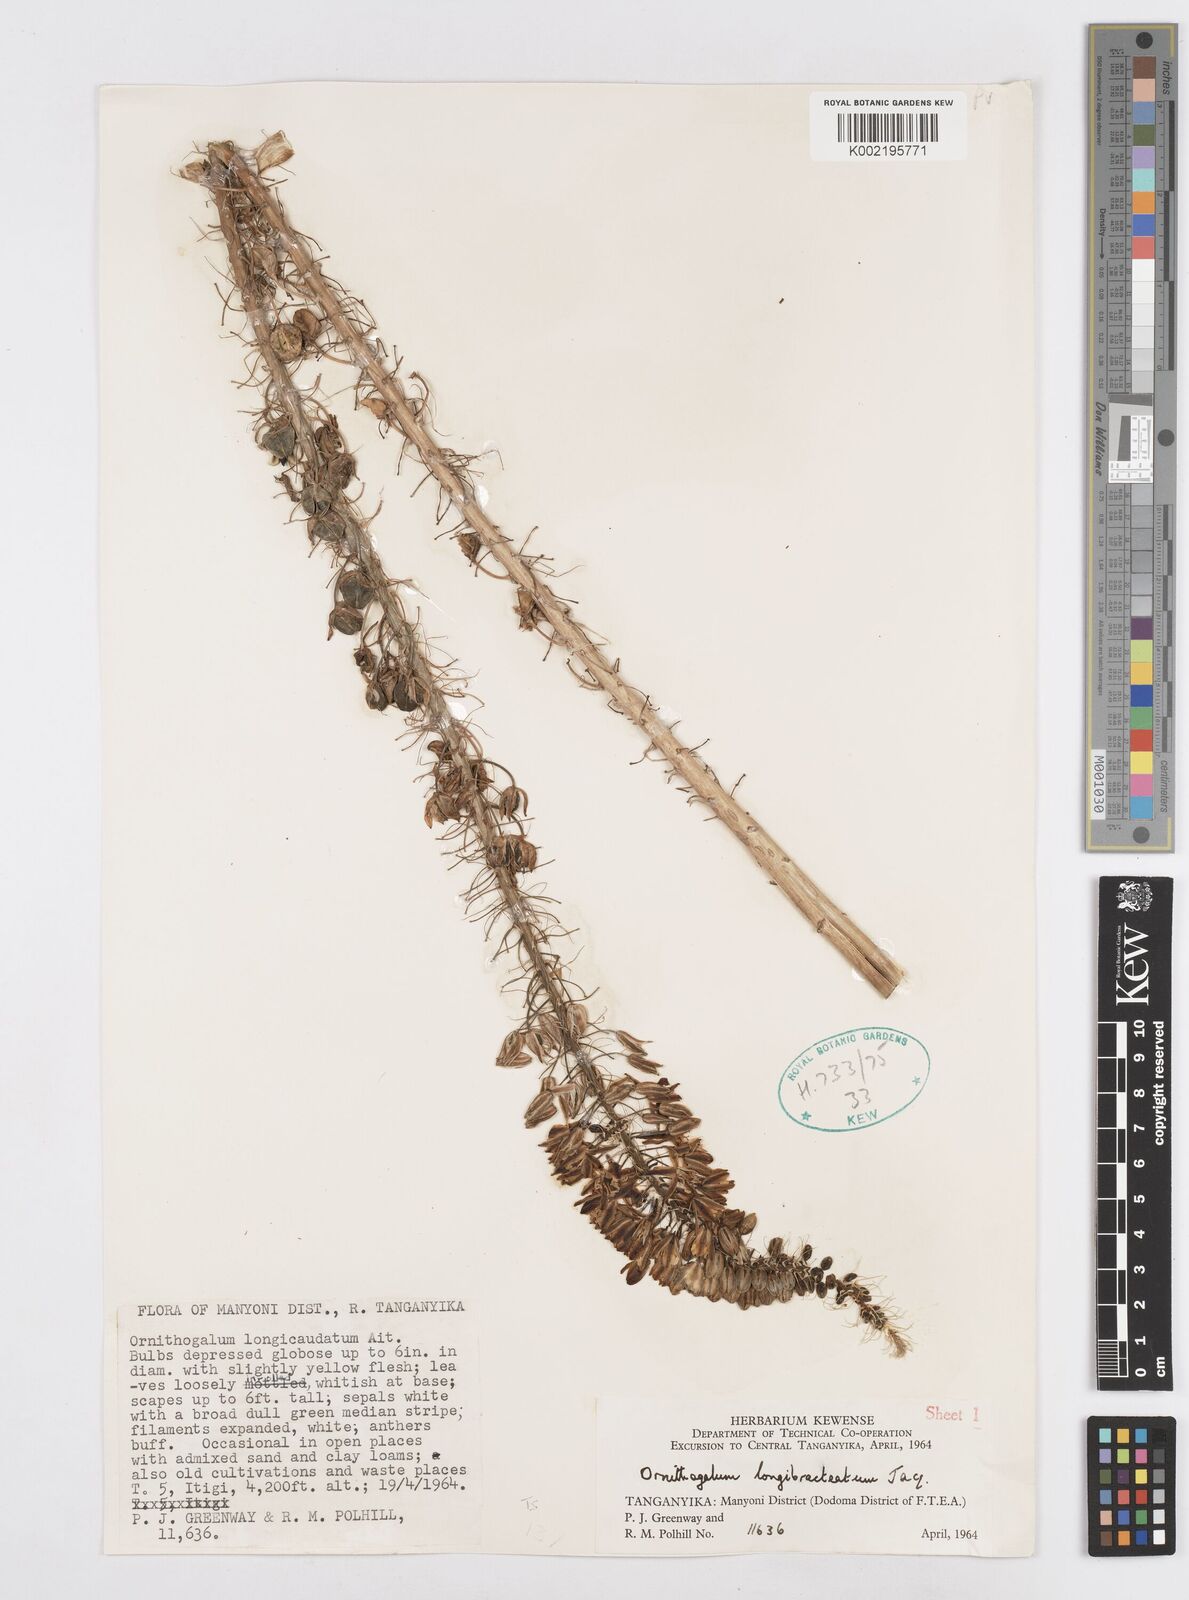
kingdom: Plantae
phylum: Tracheophyta
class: Liliopsida
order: Asparagales
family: Asparagaceae
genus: Albuca
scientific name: Albuca bracteata
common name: Sea-onion
